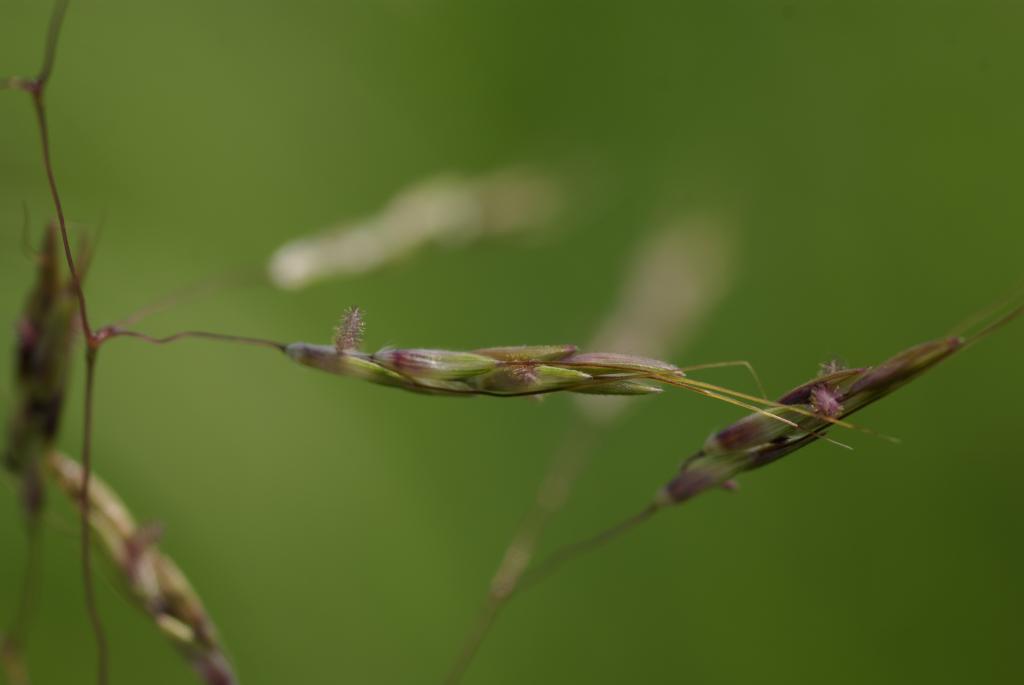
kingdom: Plantae
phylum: Tracheophyta
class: Liliopsida
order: Poales
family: Poaceae
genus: Capillipedium
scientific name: Capillipedium parviflorum
